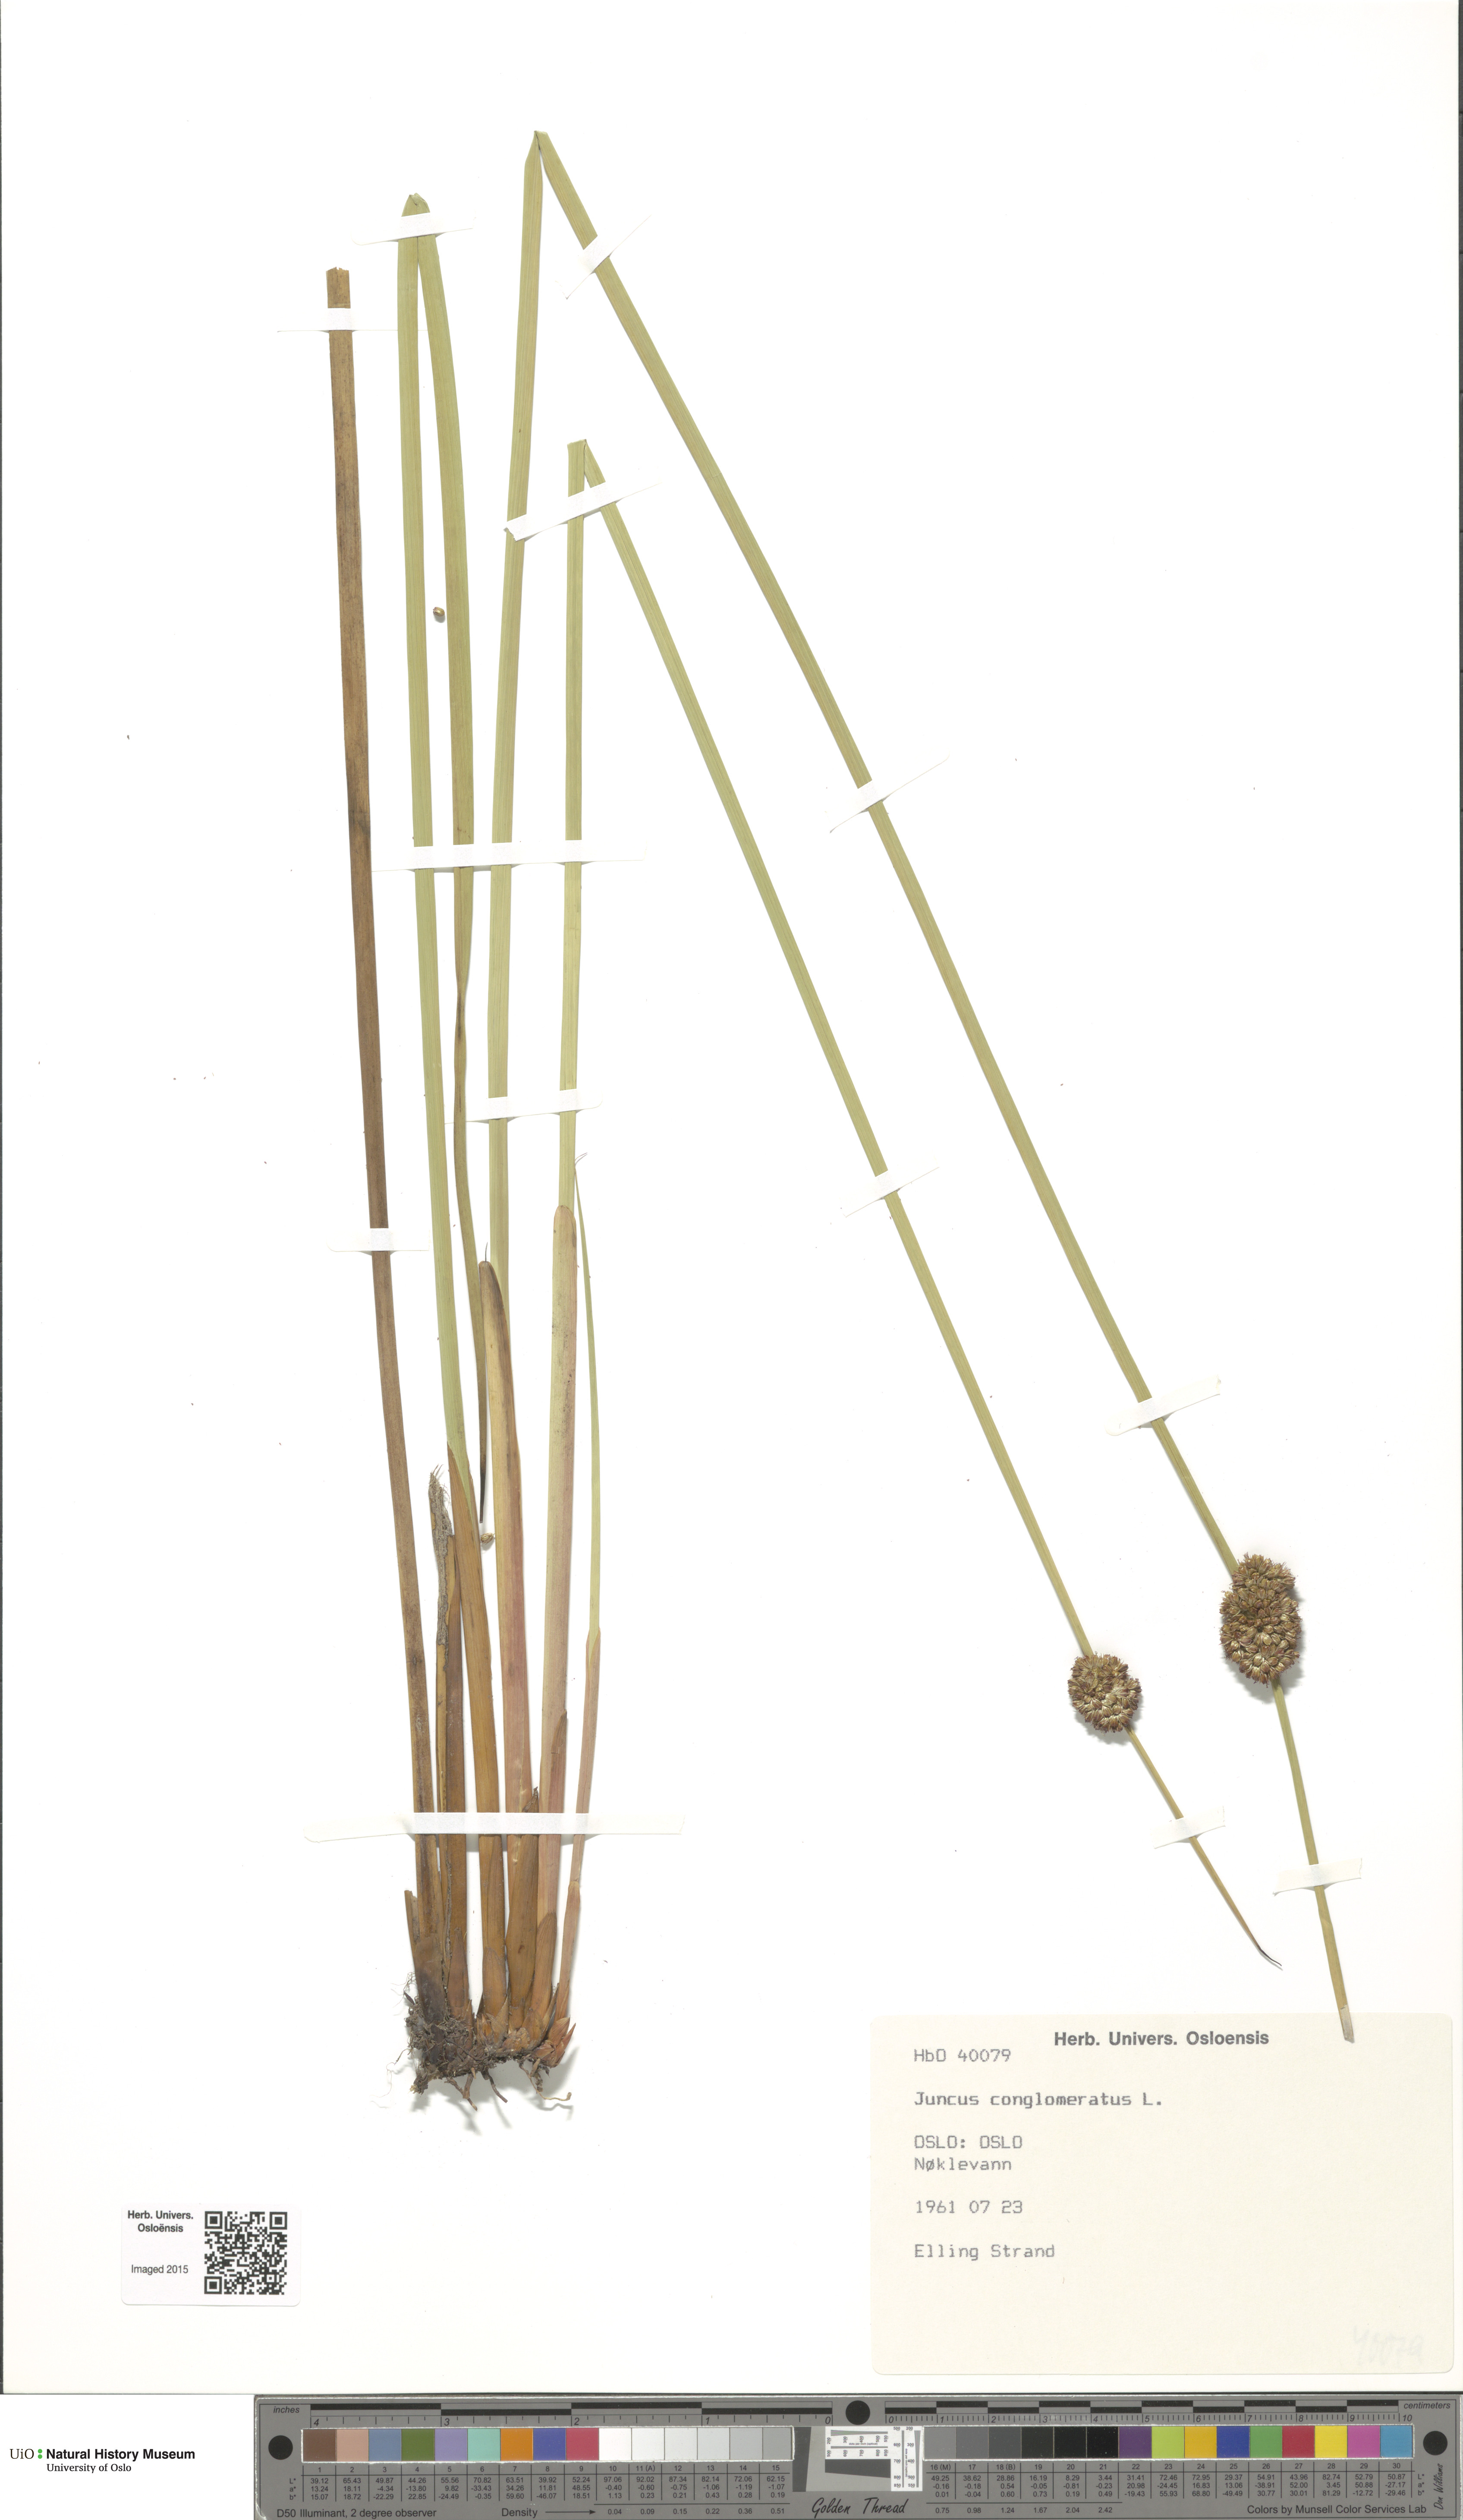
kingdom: Plantae
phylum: Tracheophyta
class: Liliopsida
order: Poales
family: Juncaceae
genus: Juncus
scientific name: Juncus conglomeratus
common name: Compact rush
